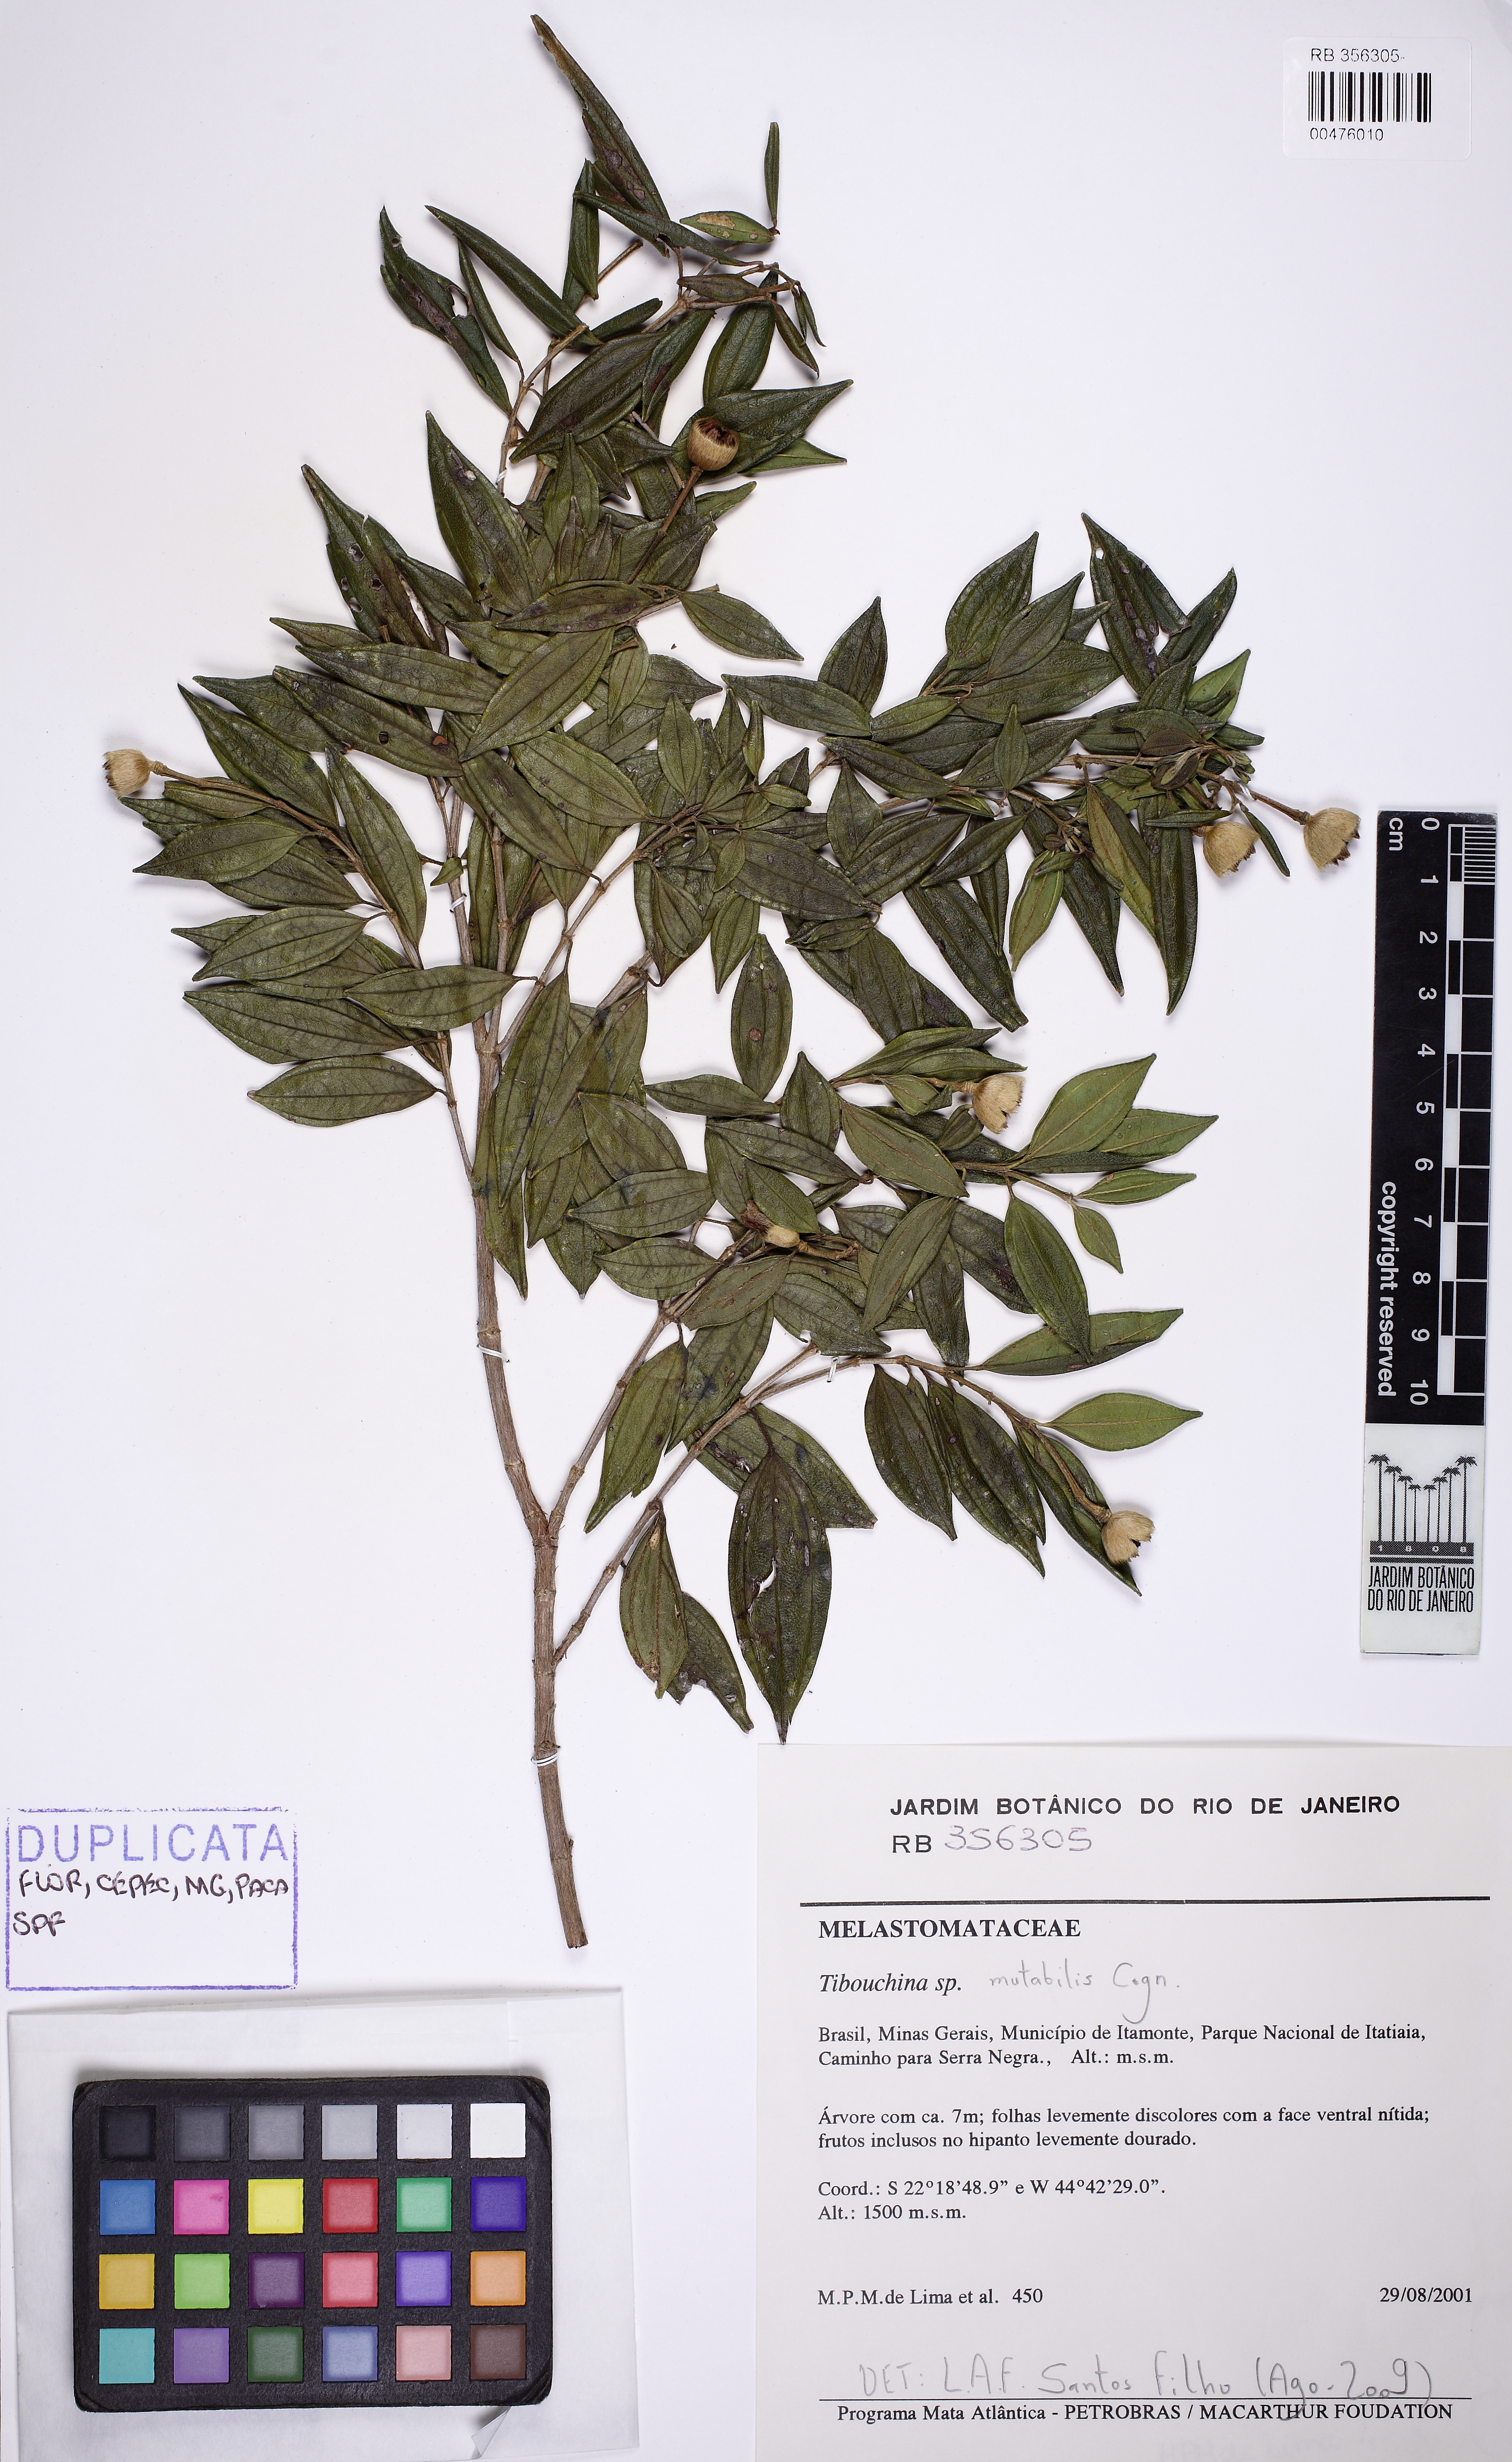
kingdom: Plantae
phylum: Tracheophyta
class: Magnoliopsida
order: Myrtales
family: Melastomataceae
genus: Pleroma
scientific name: Pleroma mutabile
